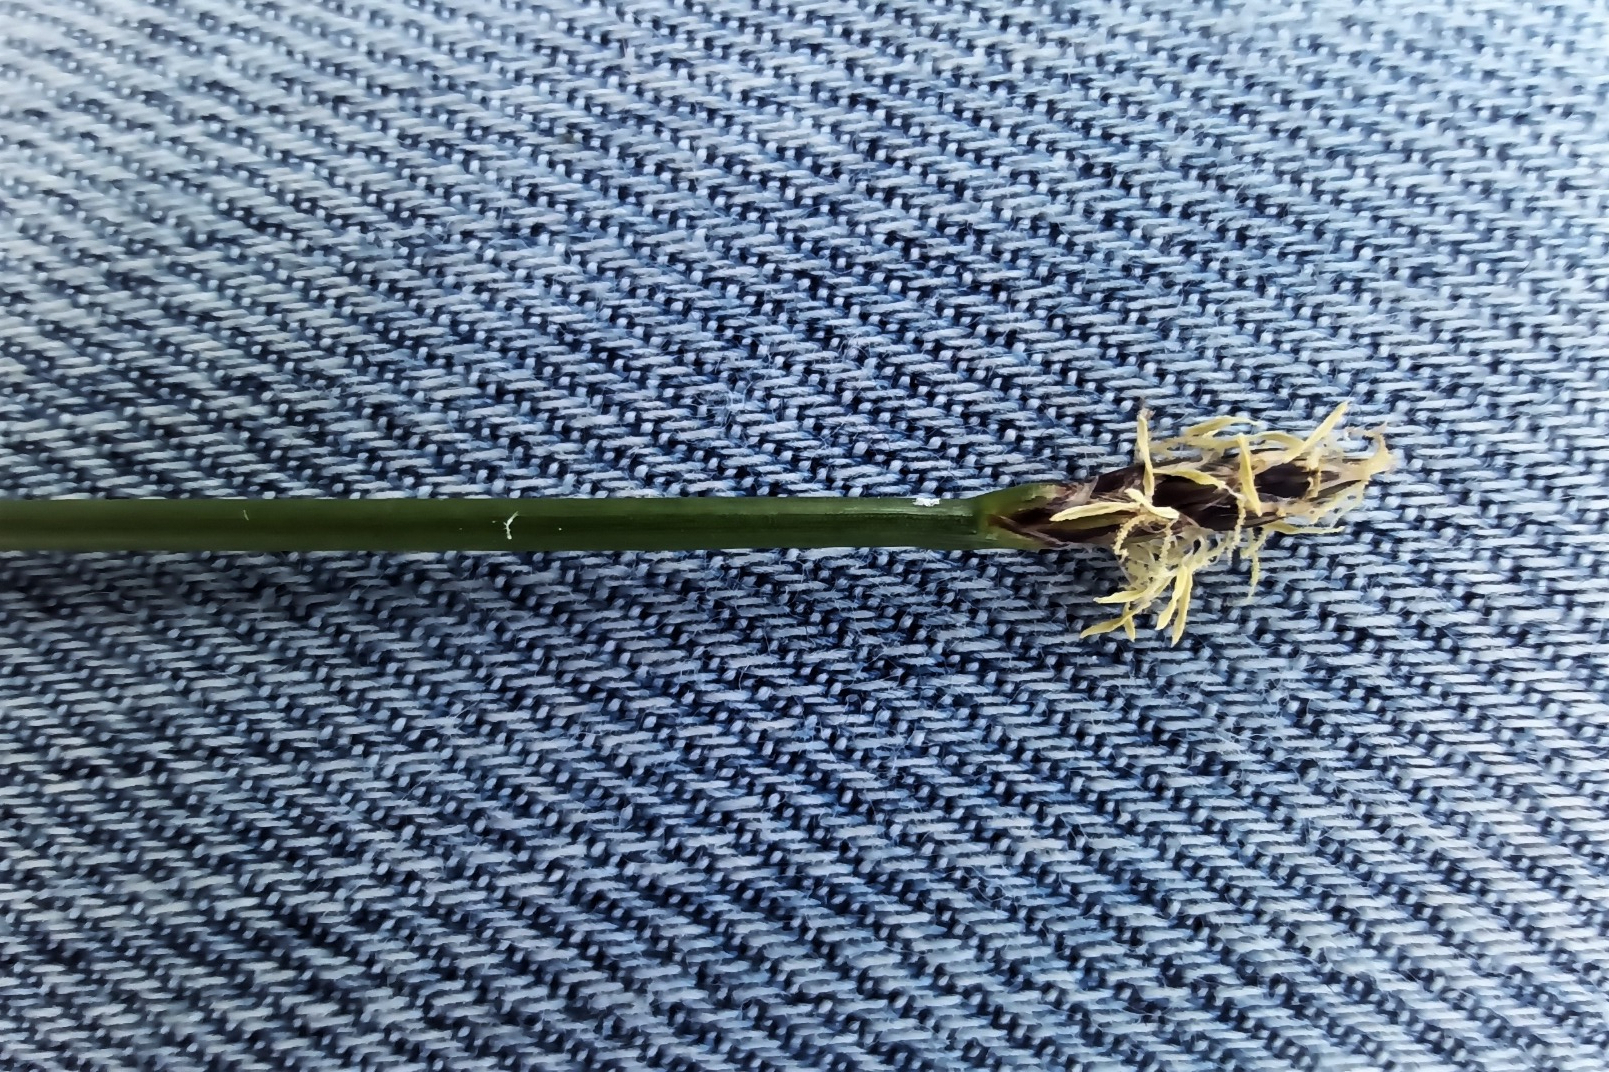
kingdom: Plantae
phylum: Tracheophyta
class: Liliopsida
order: Poales
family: Cyperaceae
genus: Eleocharis
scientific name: Eleocharis palustris
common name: Almindelig sumpstrå
